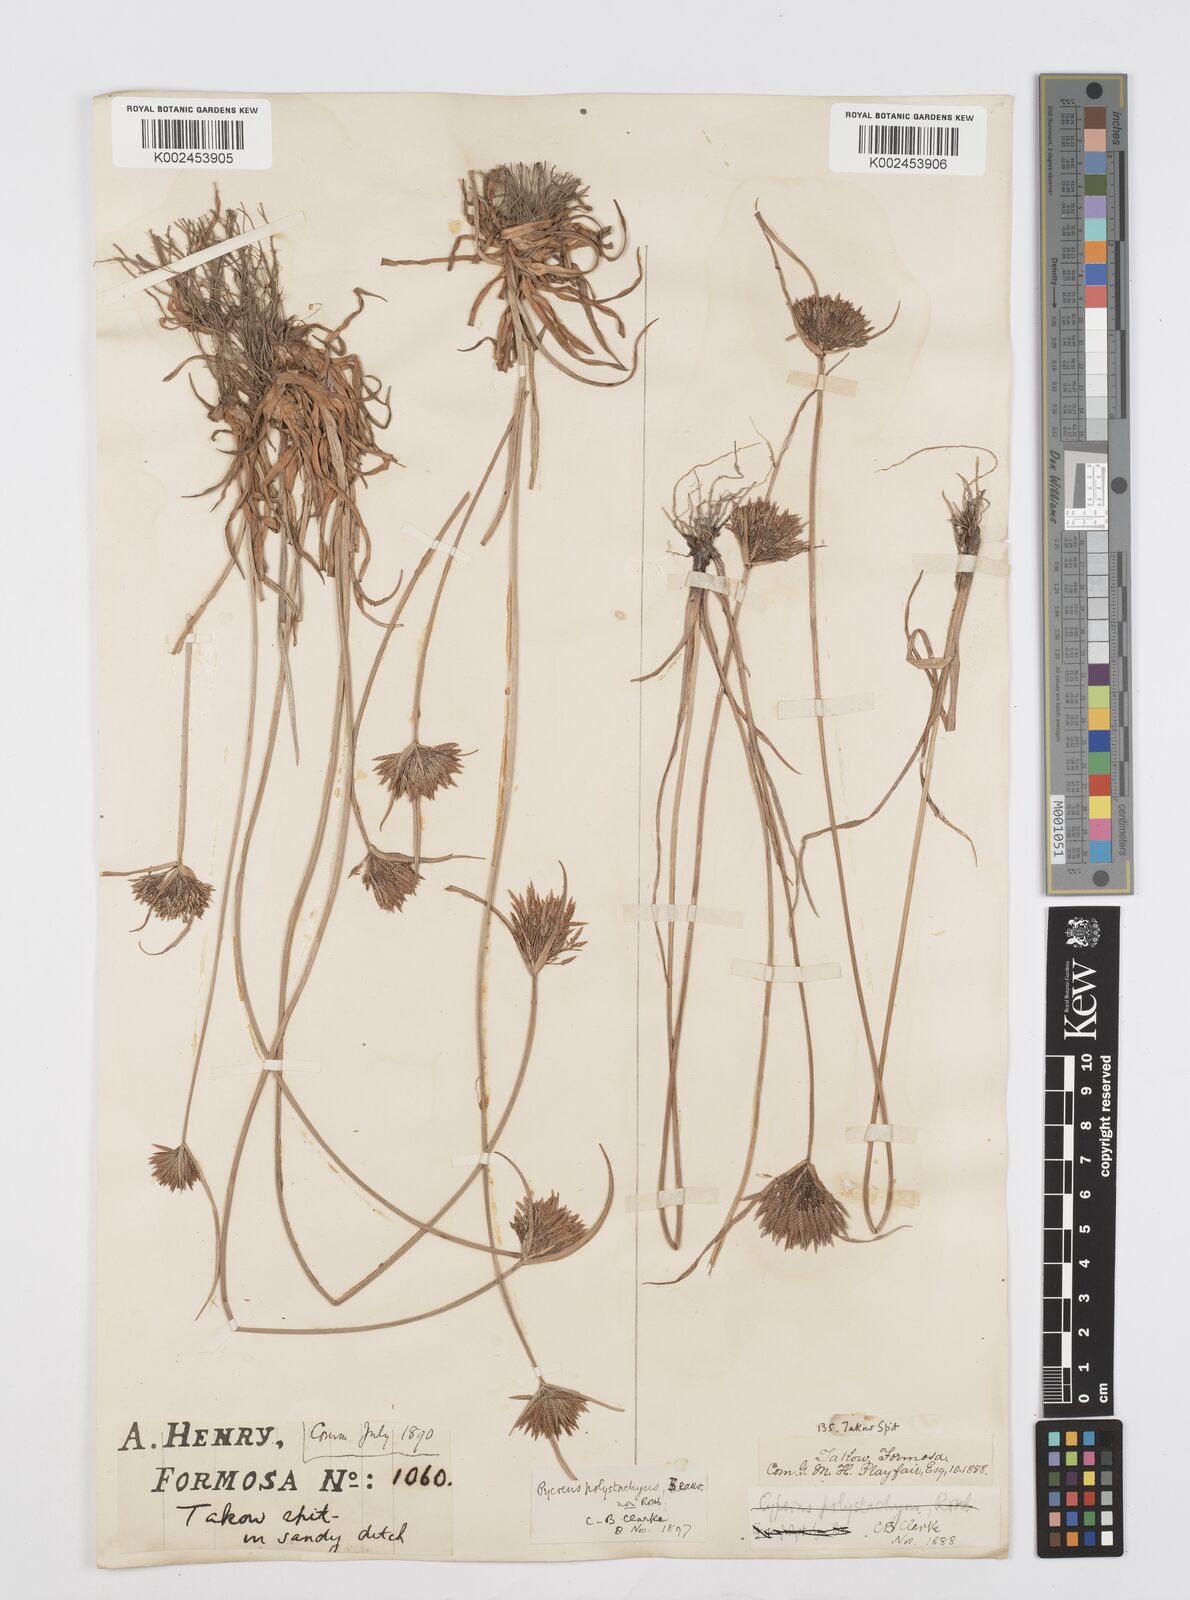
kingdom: Plantae
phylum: Tracheophyta
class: Liliopsida
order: Poales
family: Cyperaceae
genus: Cyperus
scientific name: Cyperus polystachyos
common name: Bunchy flat sedge
